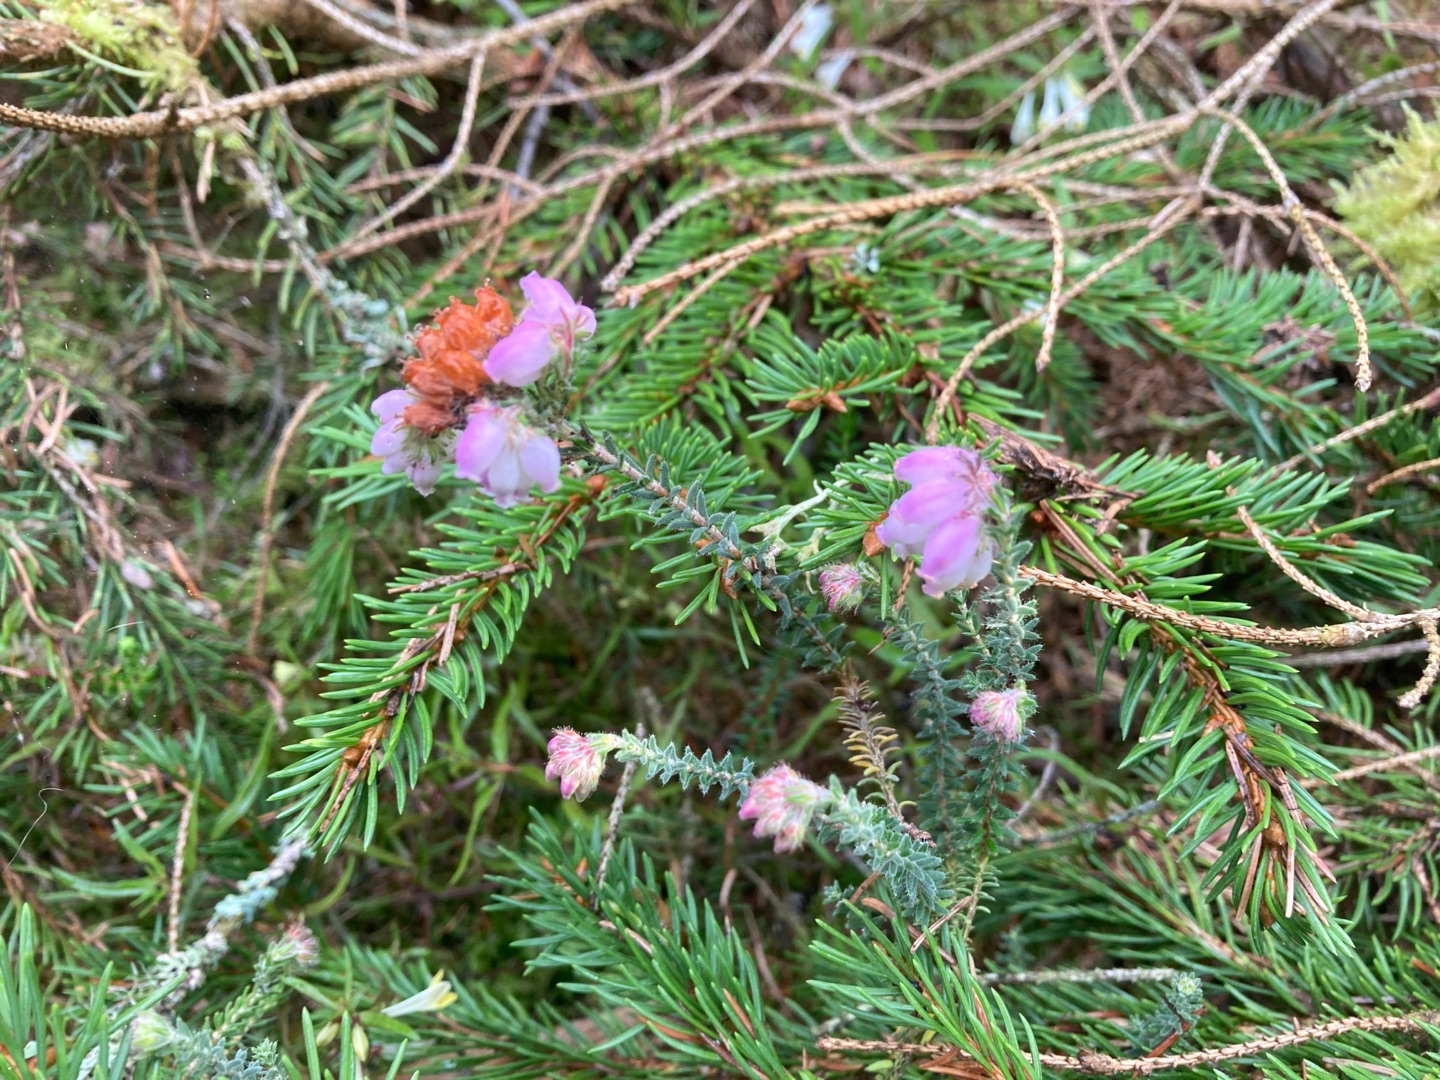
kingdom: Plantae
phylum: Tracheophyta
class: Magnoliopsida
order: Ericales
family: Ericaceae
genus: Erica
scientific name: Erica tetralix
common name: Klokkelyng
